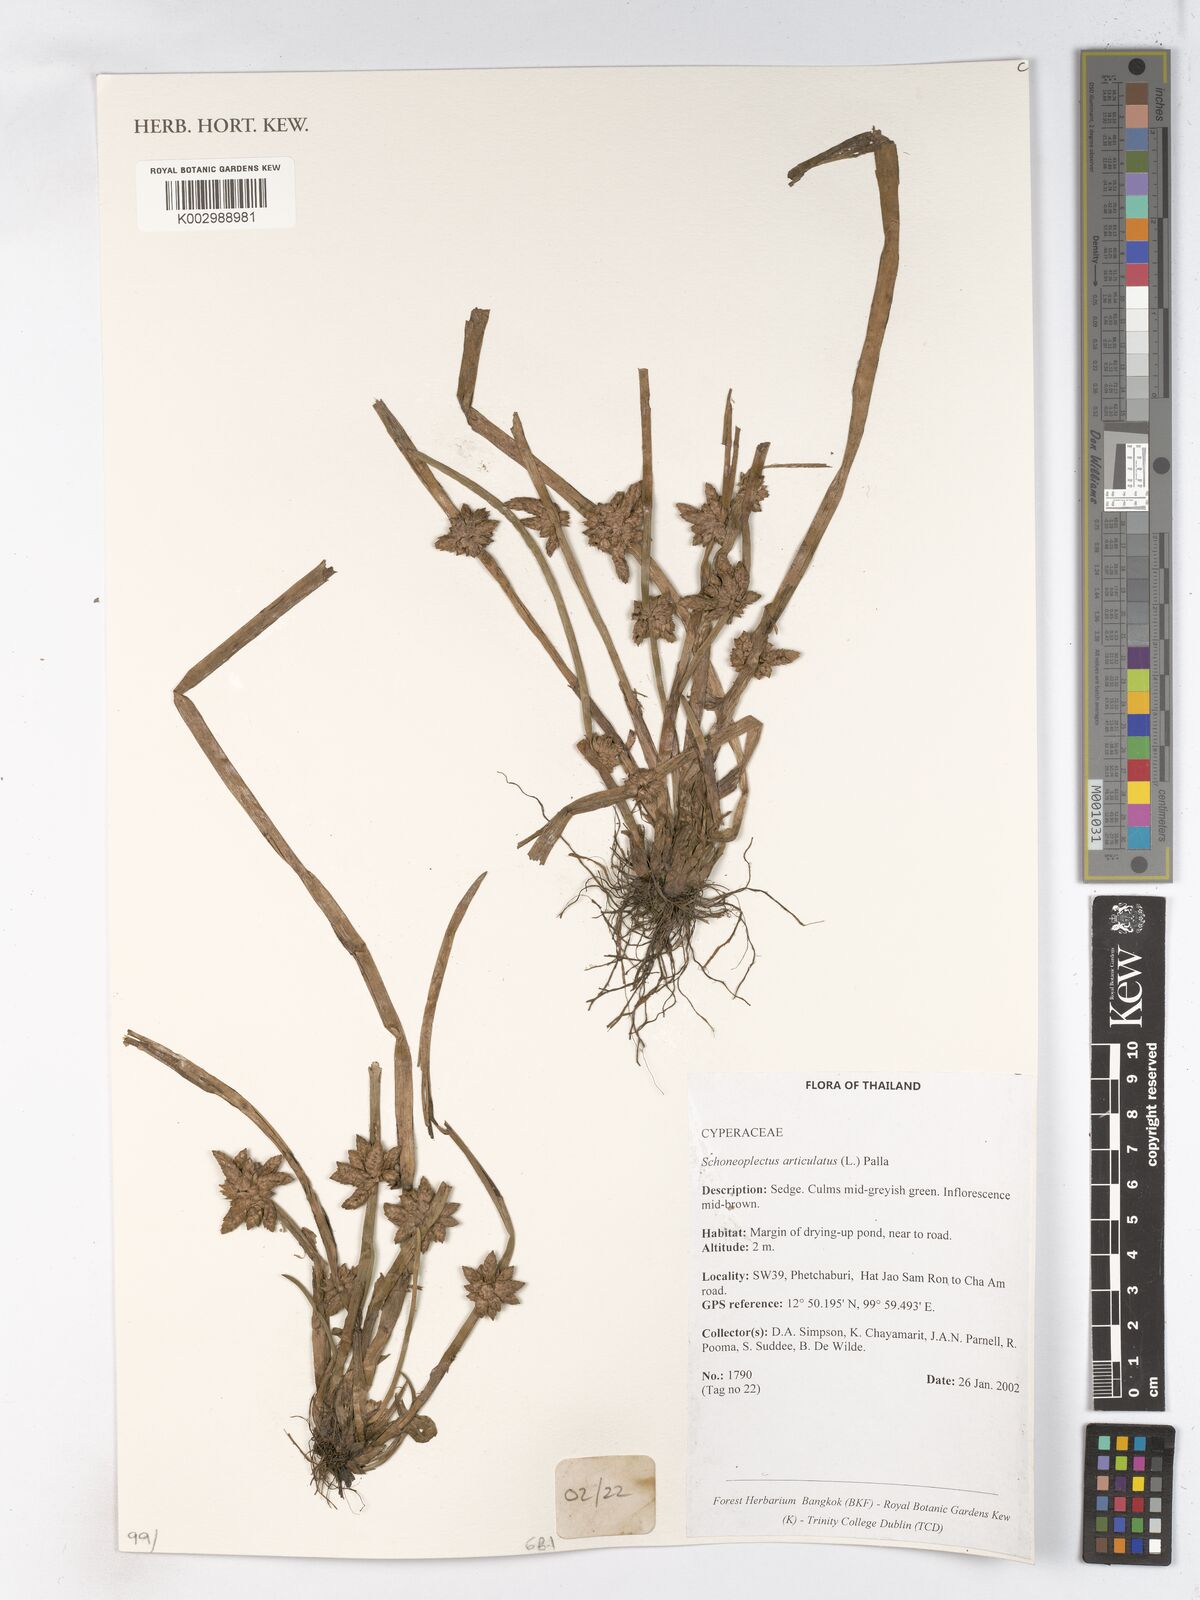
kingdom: Plantae
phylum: Tracheophyta
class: Liliopsida
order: Poales
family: Cyperaceae
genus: Schoenoplectiella
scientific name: Schoenoplectiella articulata
